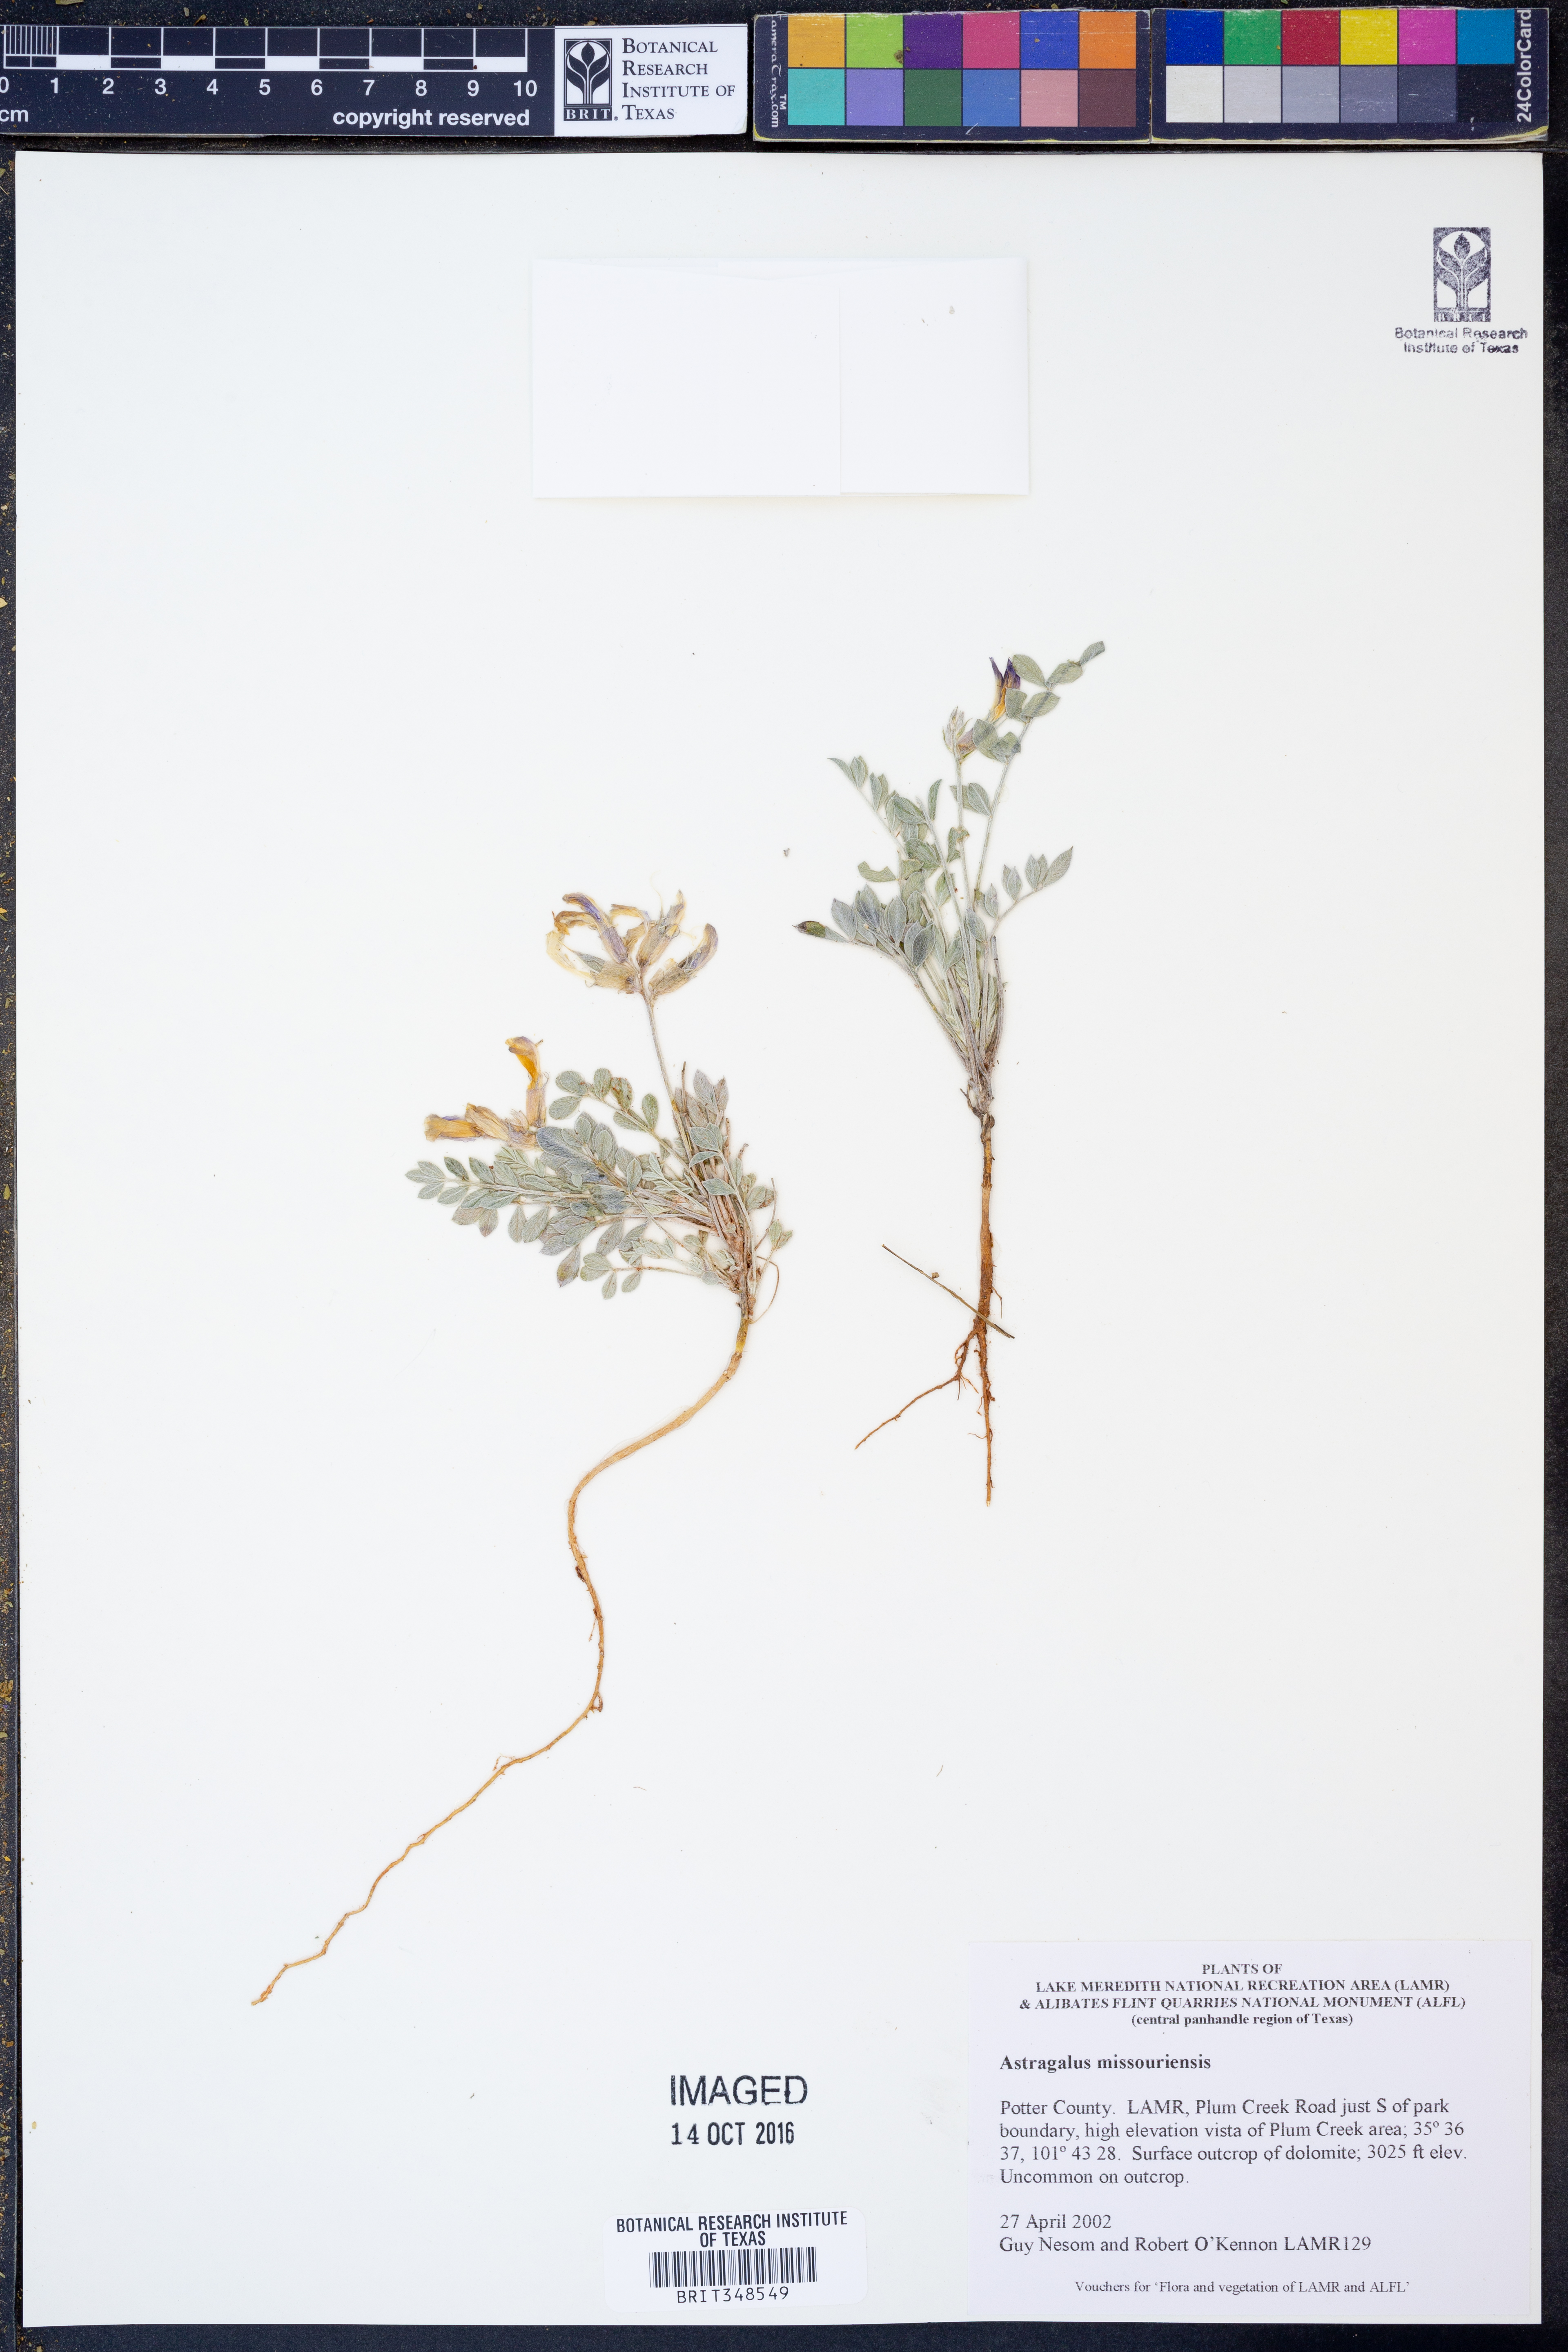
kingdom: Plantae
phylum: Tracheophyta
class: Magnoliopsida
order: Fabales
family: Fabaceae
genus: Astragalus
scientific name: Astragalus missouriensis
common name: Missouri milk-vetch
